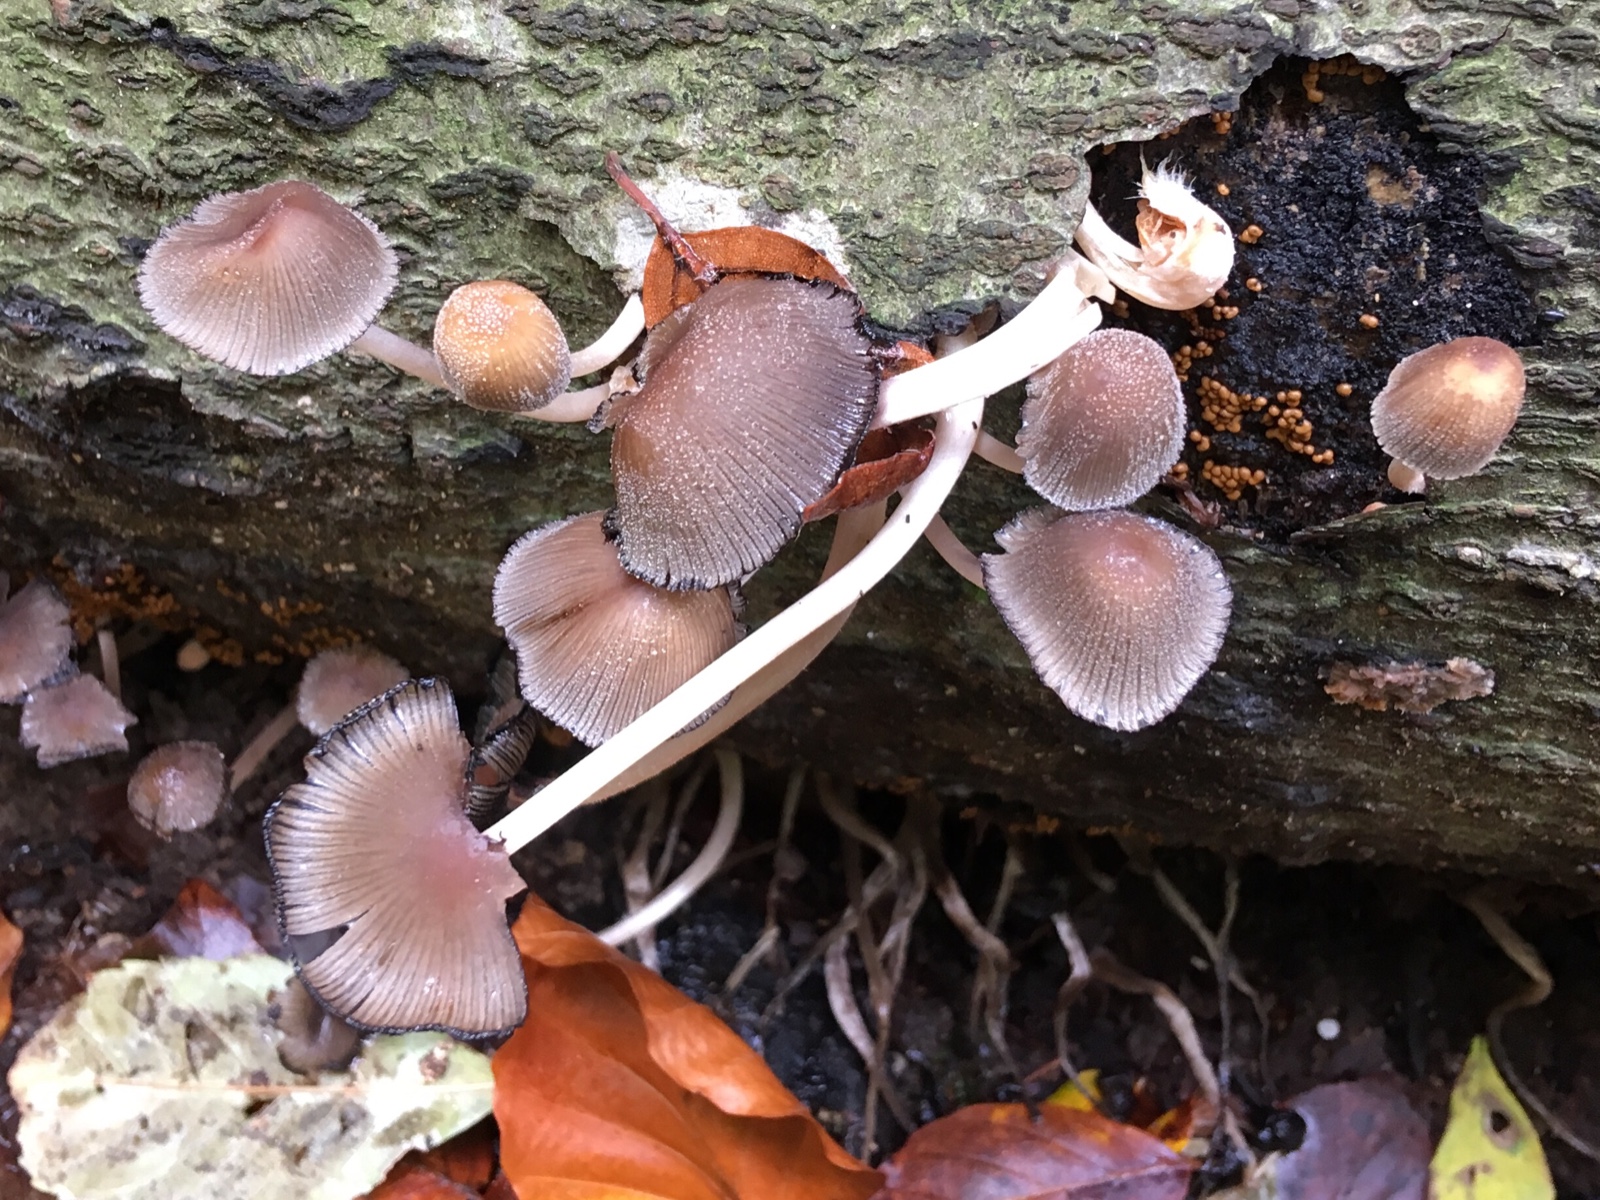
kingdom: Fungi
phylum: Basidiomycota
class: Agaricomycetes
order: Agaricales
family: Psathyrellaceae
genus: Coprinellus
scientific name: Coprinellus micaceus
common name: glimmer-blækhat
